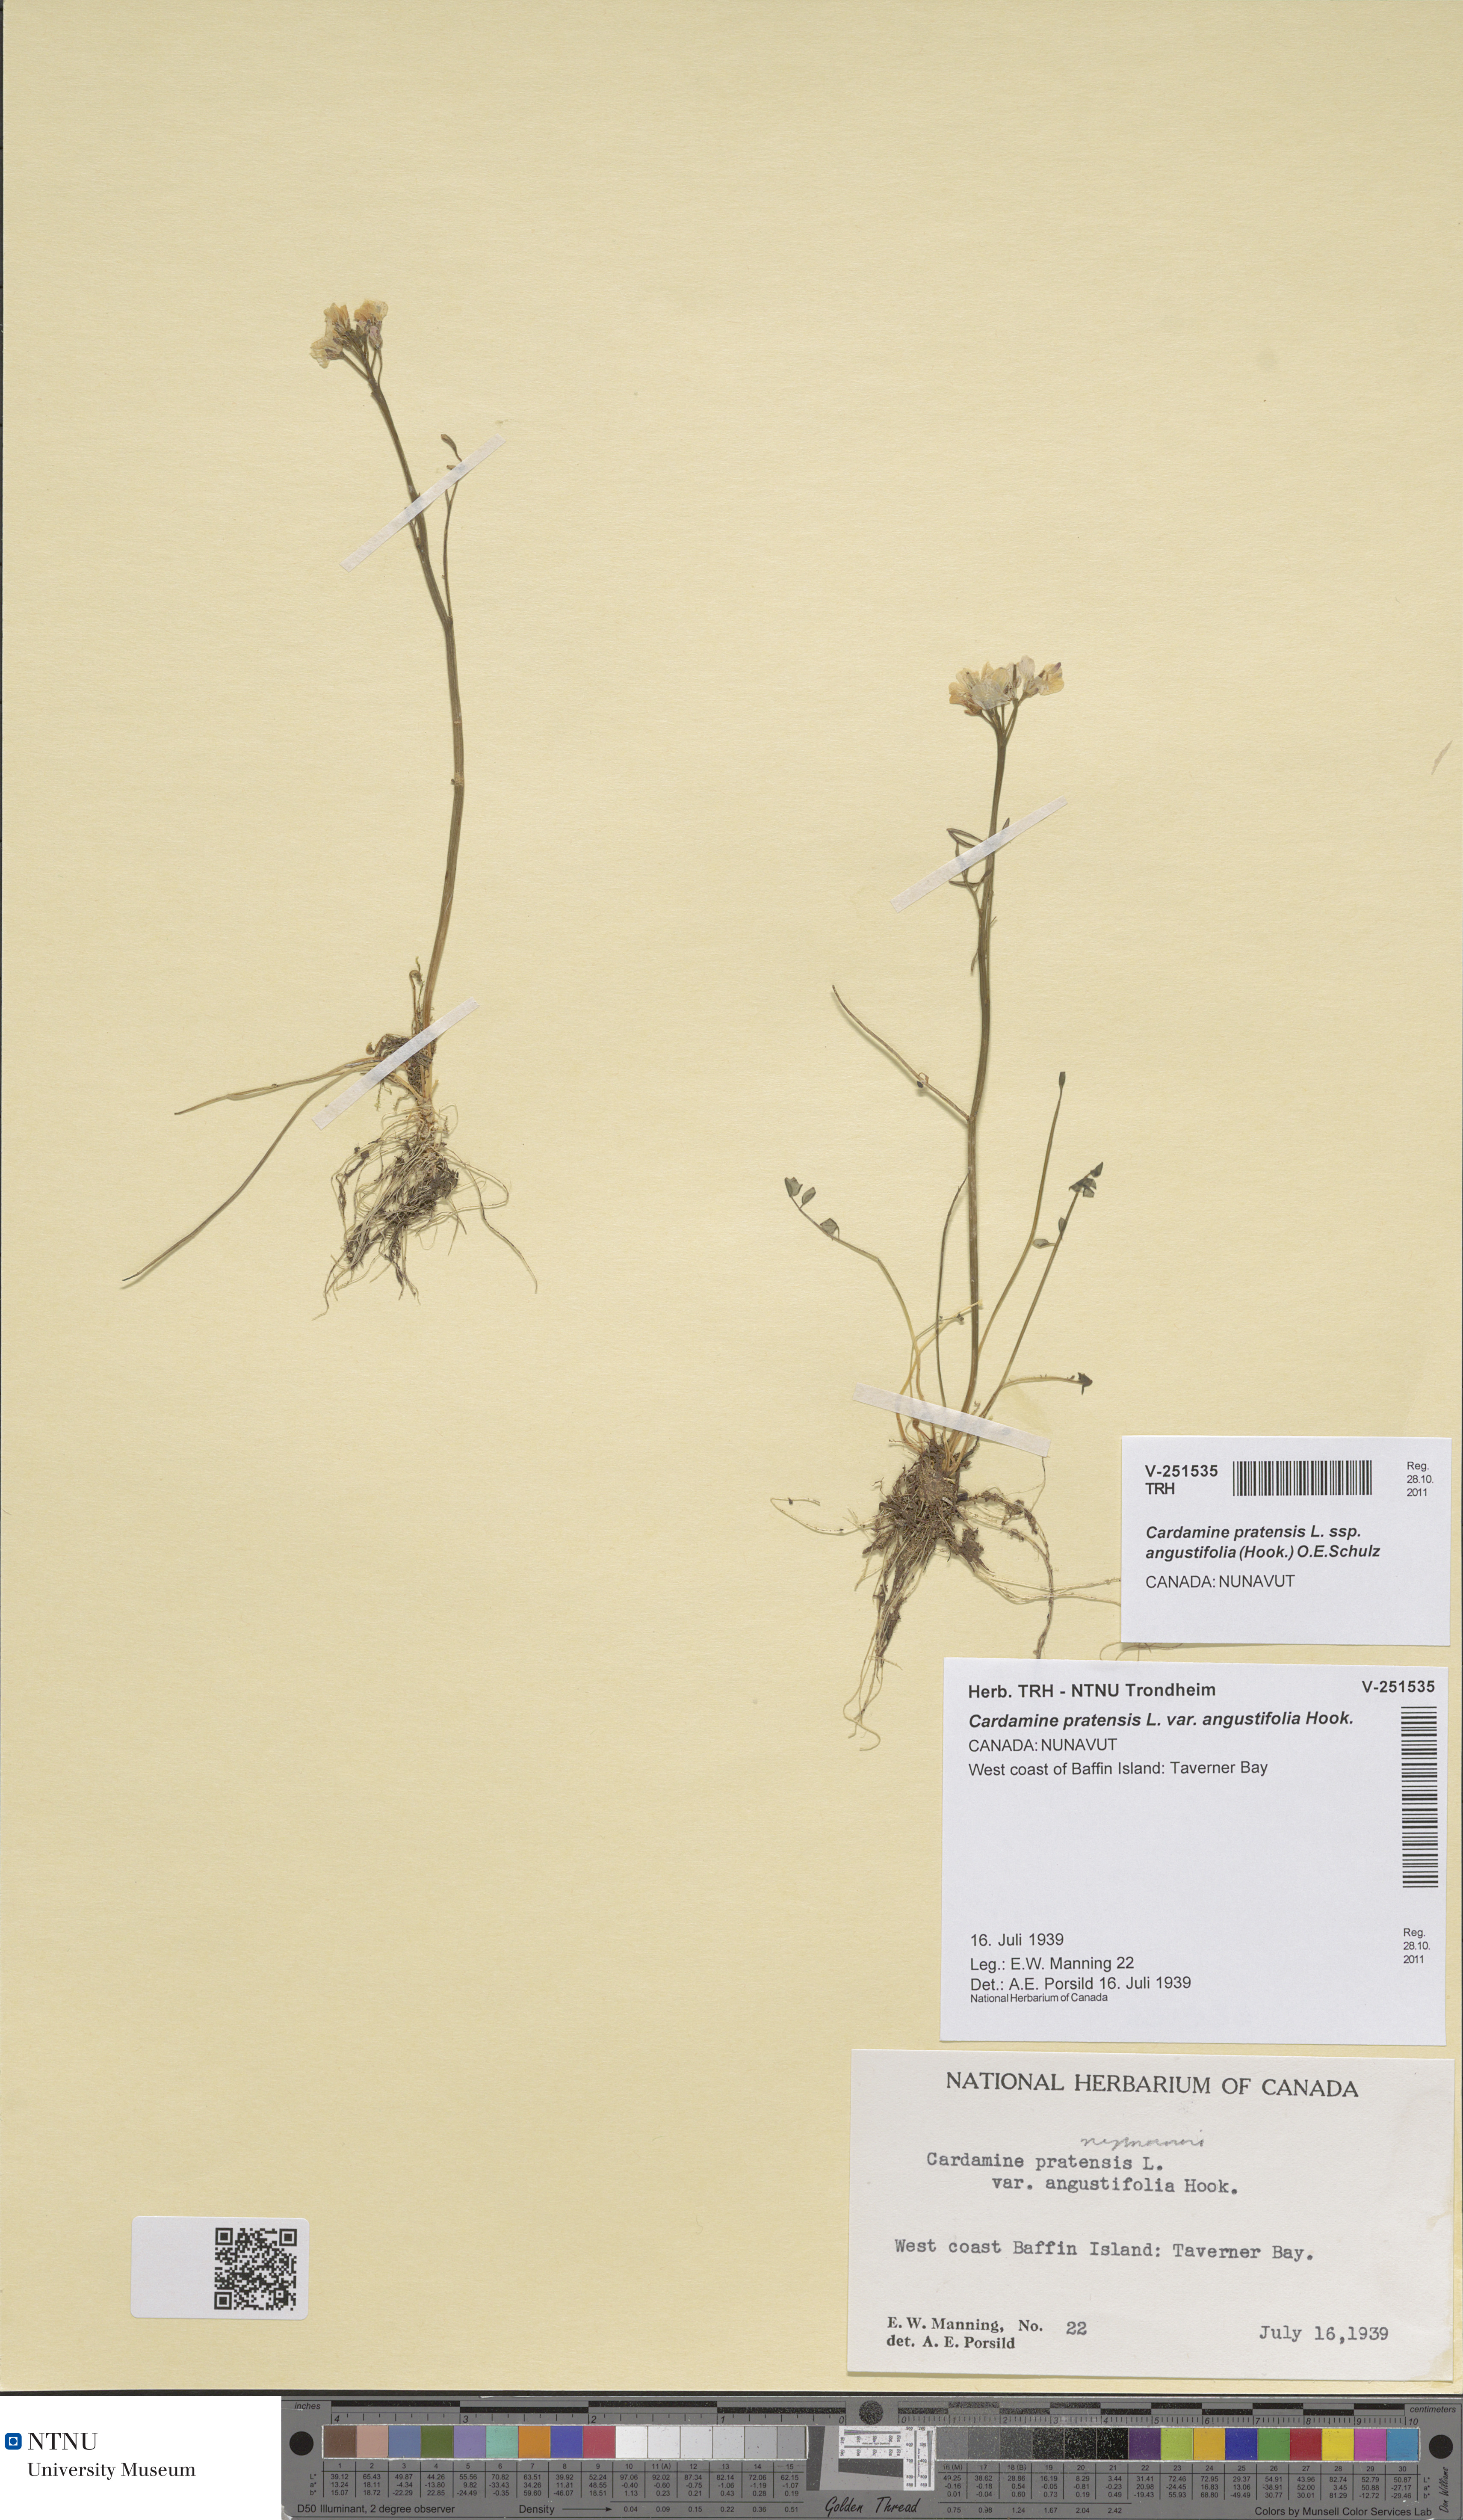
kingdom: Plantae
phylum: Tracheophyta
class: Magnoliopsida
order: Brassicales
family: Brassicaceae
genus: Cardamine
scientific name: Cardamine nymanii
